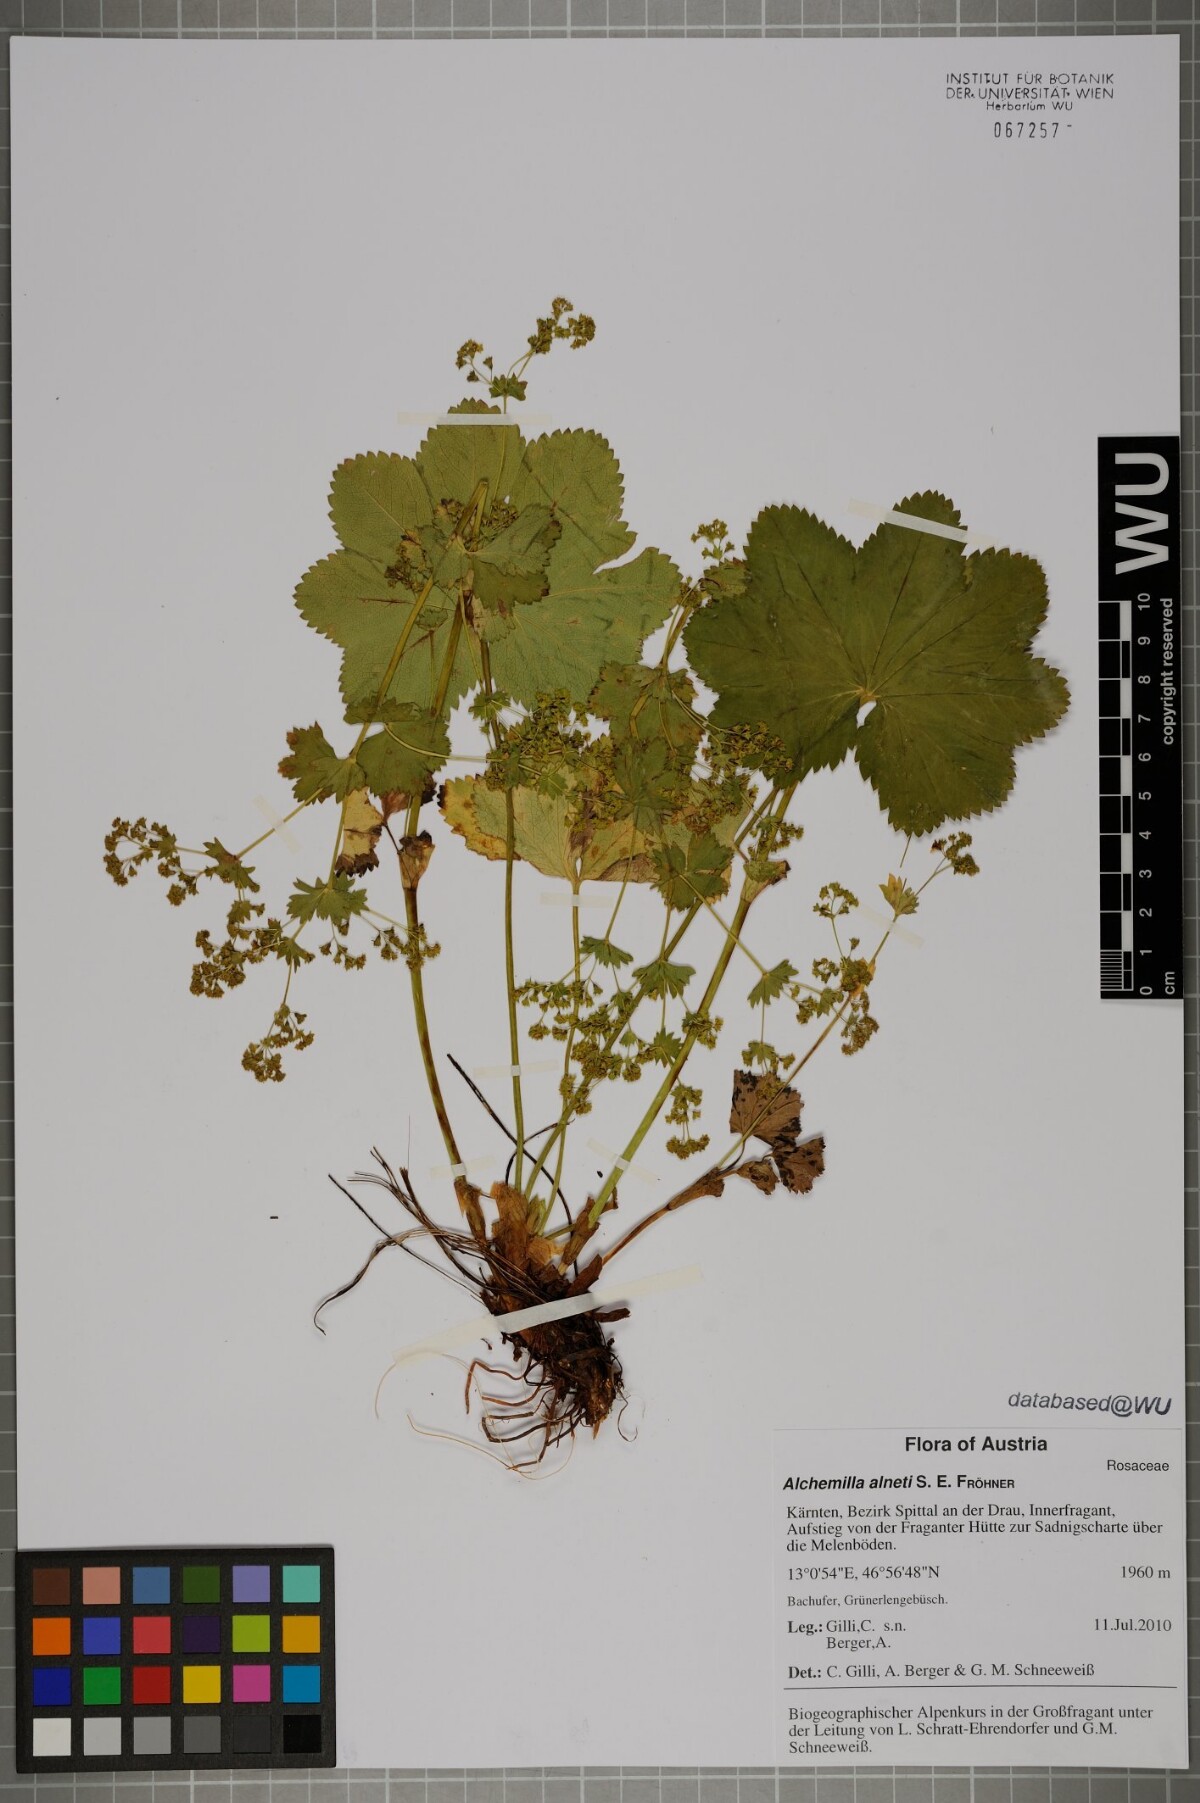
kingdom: Plantae
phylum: Tracheophyta
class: Magnoliopsida
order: Rosales
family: Rosaceae
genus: Alchemilla
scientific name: Alchemilla alneti
